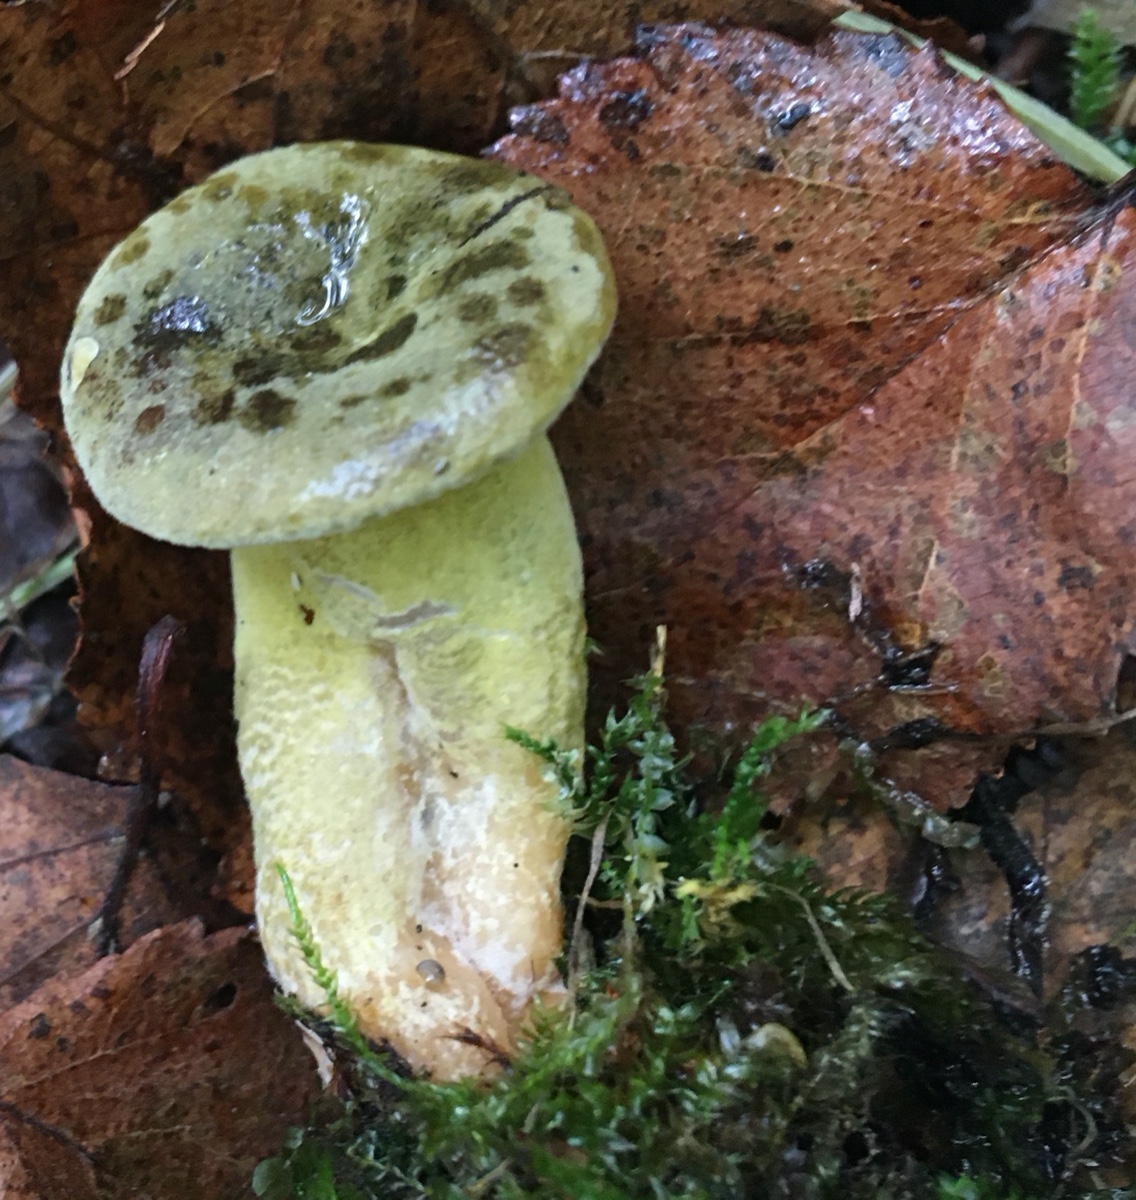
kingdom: Fungi
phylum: Ascomycota
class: Sordariomycetes
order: Hypocreales
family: Hypocreaceae
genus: Hypomyces
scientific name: Hypomyces luteovirens
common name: gulgrøn snylteskorpe
